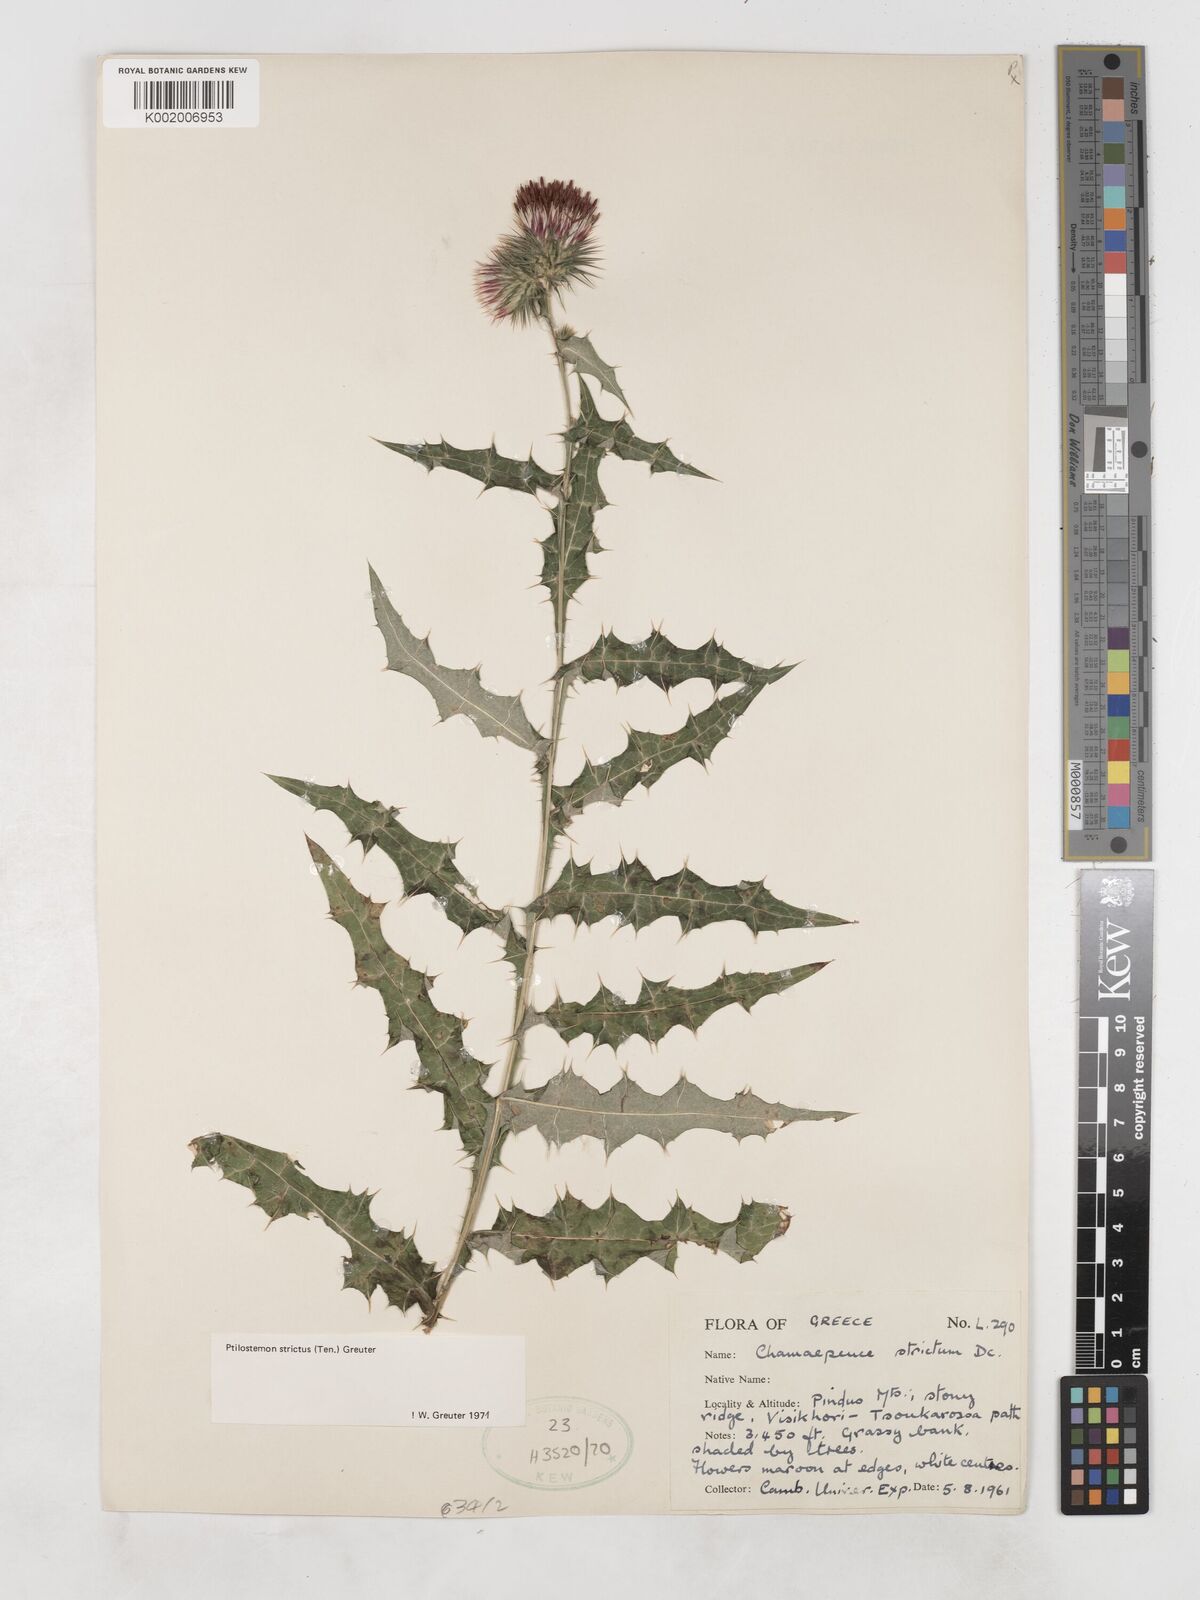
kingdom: Plantae
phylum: Tracheophyta
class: Magnoliopsida
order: Asterales
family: Asteraceae
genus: Ptilostemon
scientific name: Ptilostemon strictus
